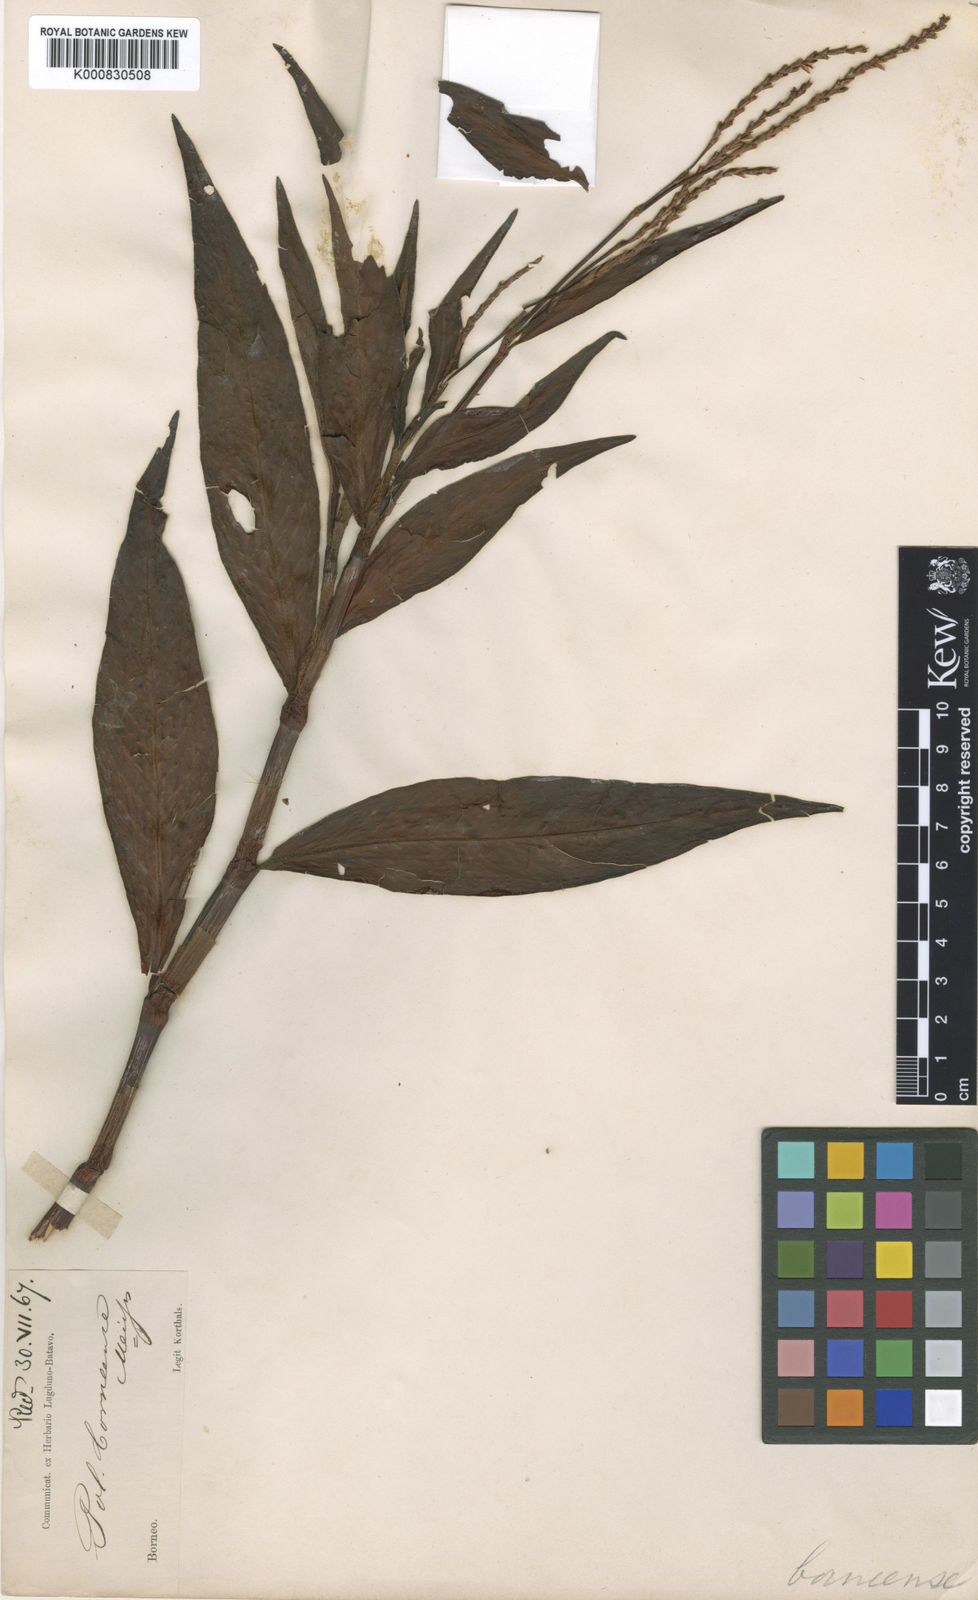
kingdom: Plantae
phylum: Tracheophyta
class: Magnoliopsida
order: Caryophyllales
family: Polygonaceae
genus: Persicaria
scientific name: Persicaria borneensis
